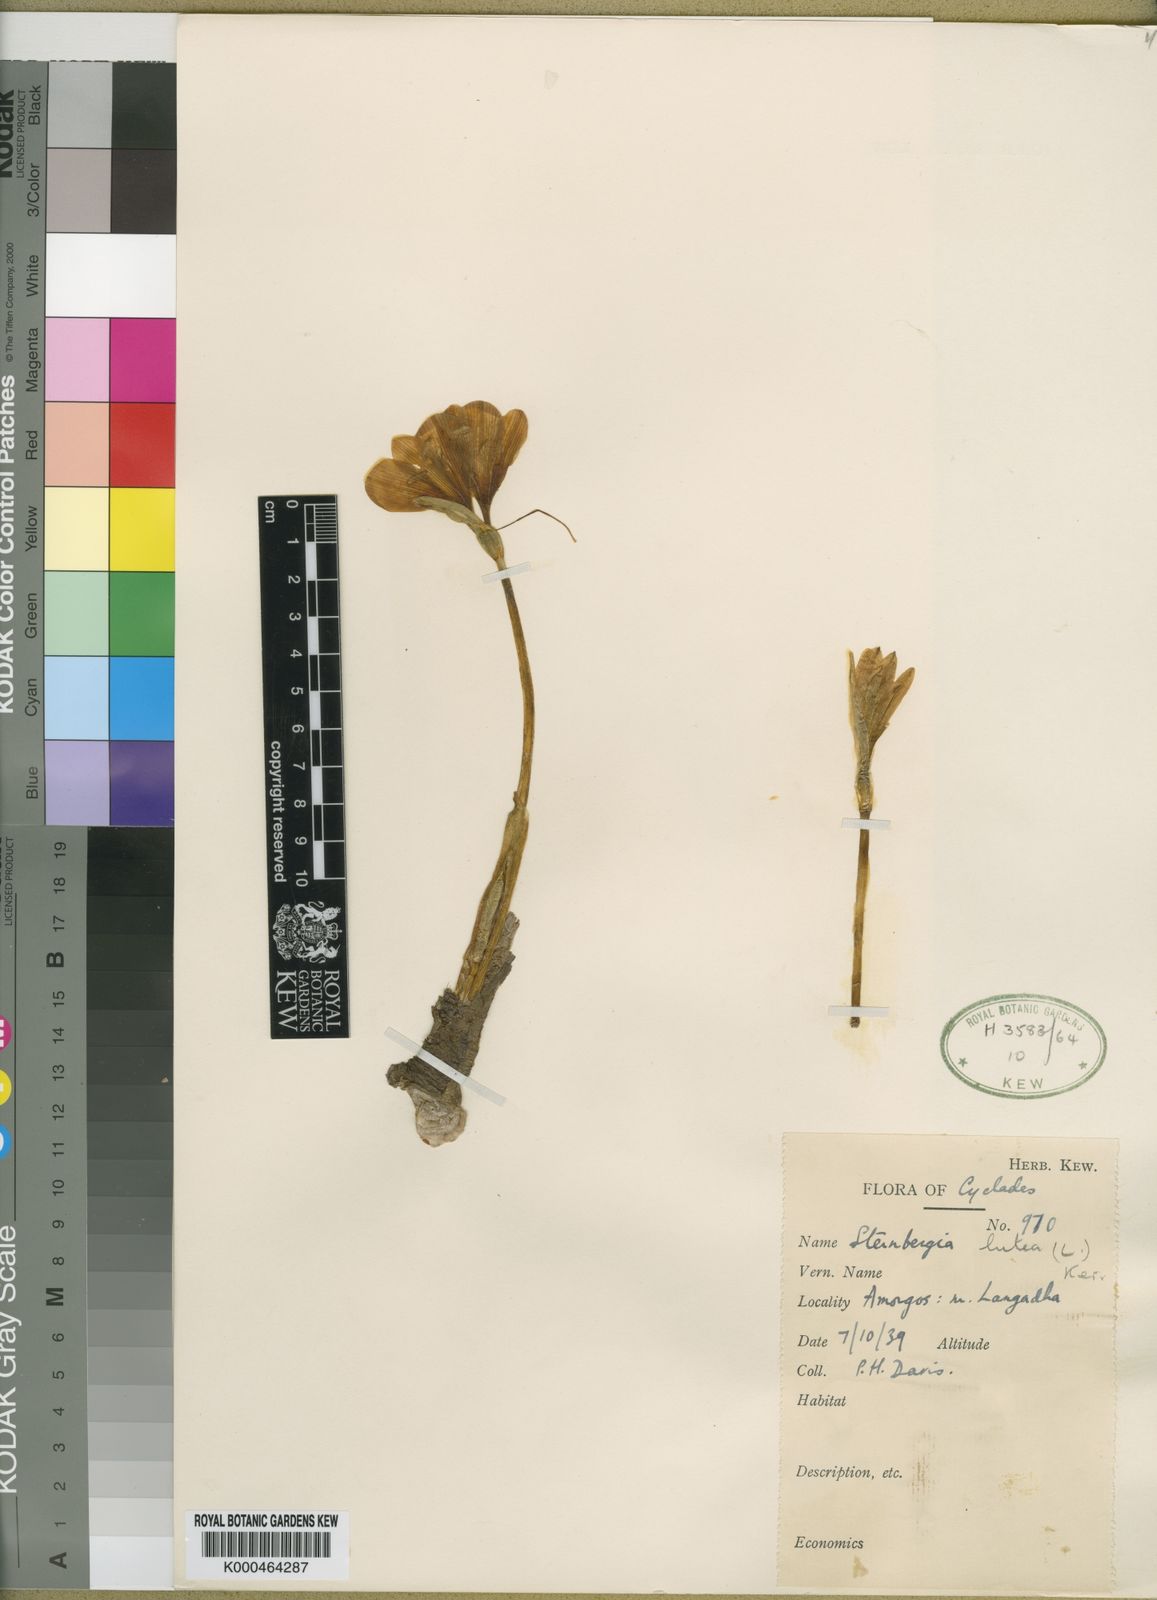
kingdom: Plantae
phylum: Tracheophyta
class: Liliopsida
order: Asparagales
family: Amaryllidaceae
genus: Sternbergia
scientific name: Sternbergia
